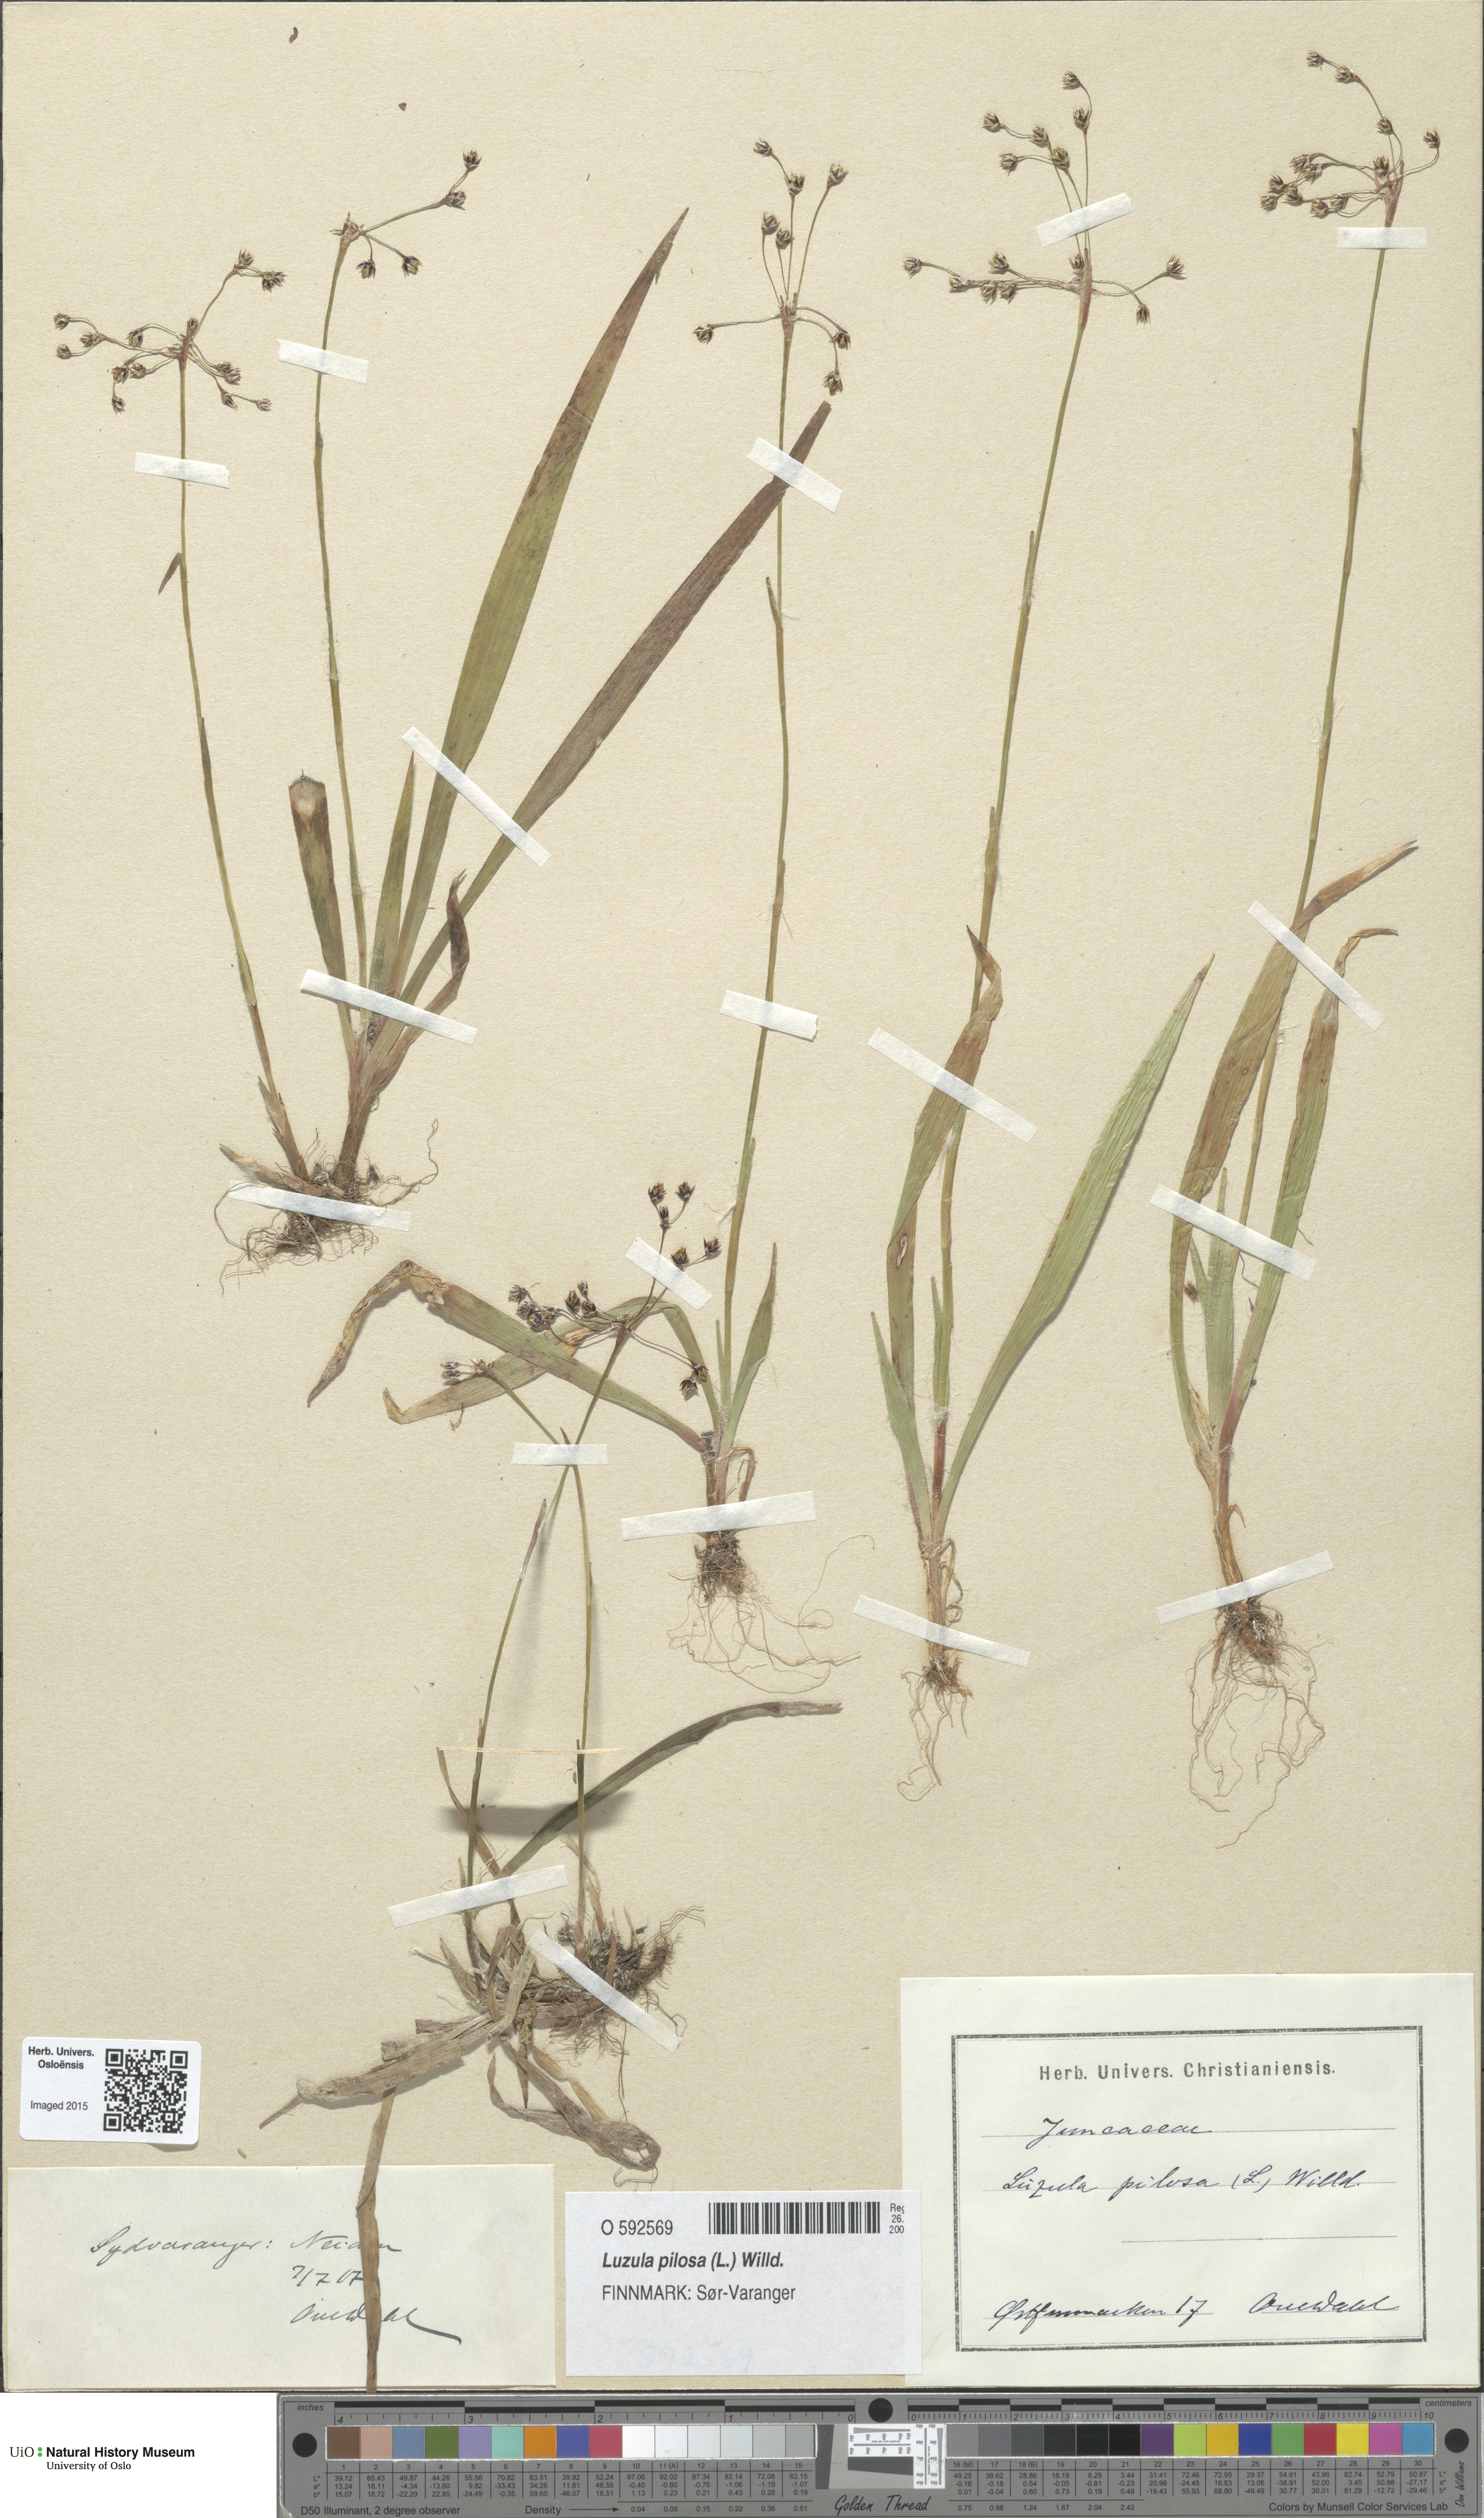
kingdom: Plantae
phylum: Tracheophyta
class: Liliopsida
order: Poales
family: Juncaceae
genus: Luzula
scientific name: Luzula pilosa
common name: Hairy wood-rush
